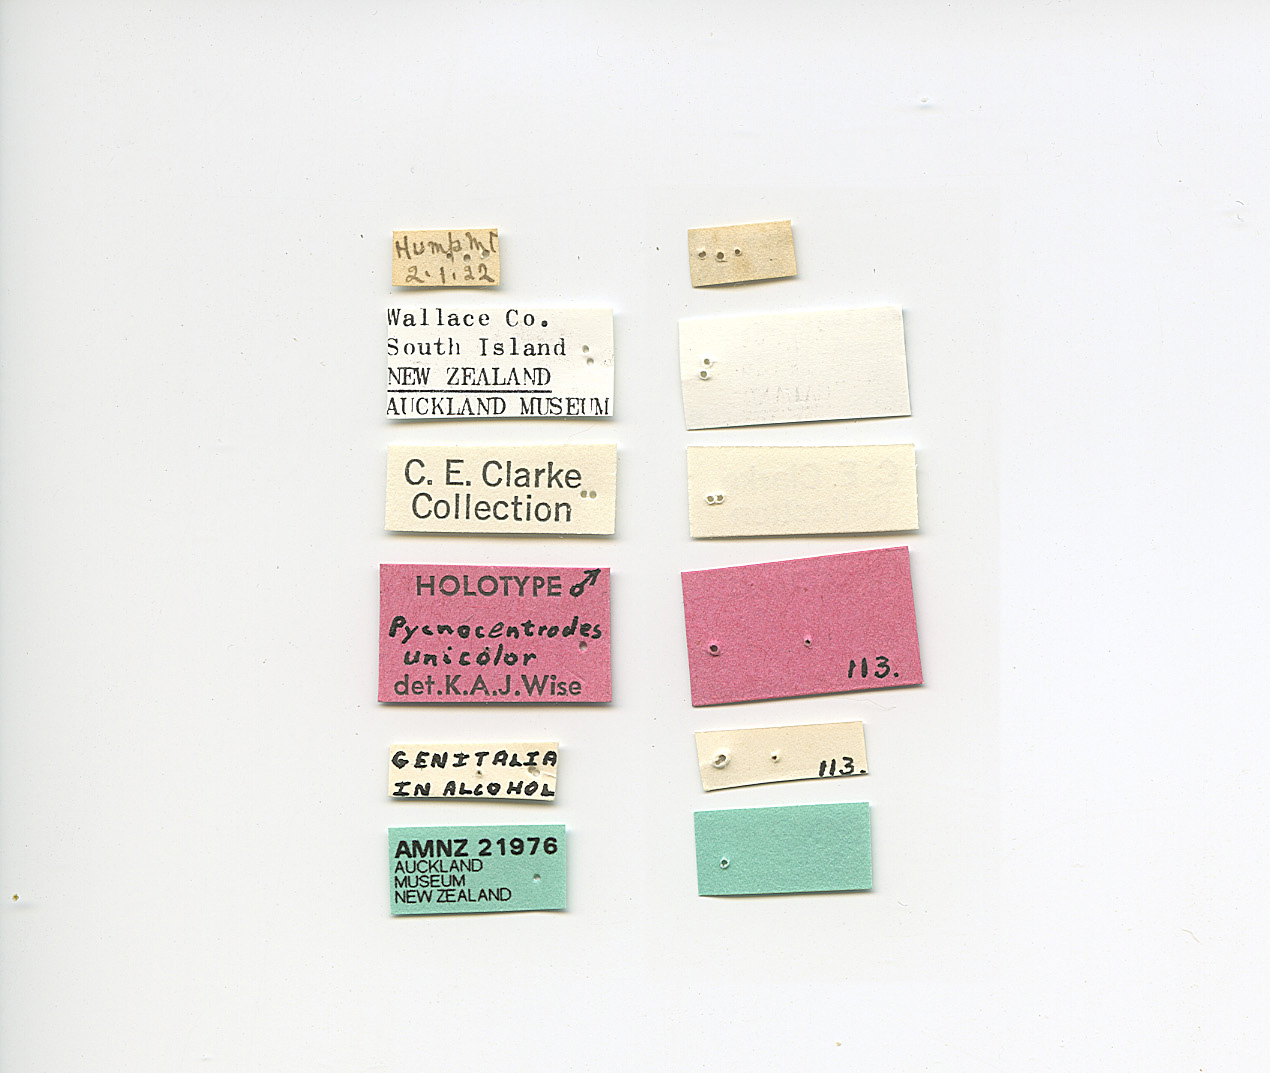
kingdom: Animalia
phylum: Arthropoda
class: Insecta
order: Trichoptera
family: Conoesucidae
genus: Pycnocentrodes
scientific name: Pycnocentrodes aureolus
